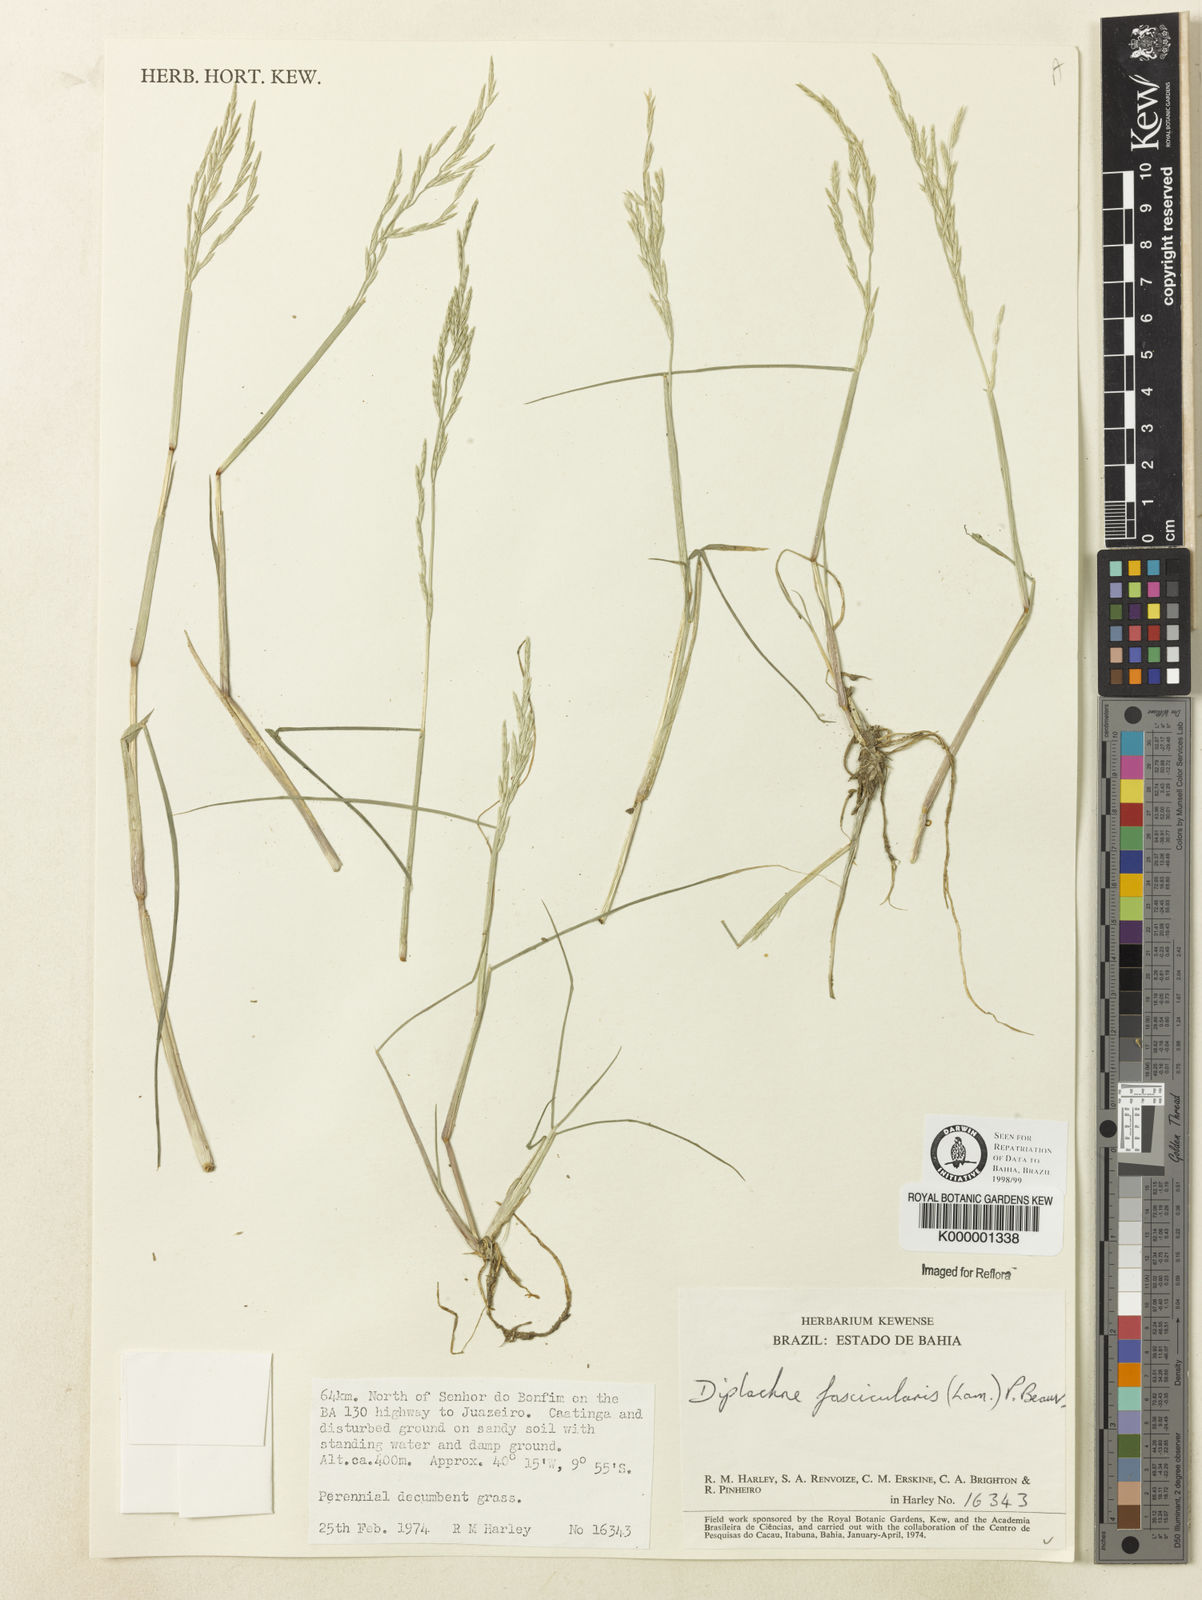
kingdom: Plantae
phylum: Tracheophyta
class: Liliopsida
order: Poales
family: Poaceae
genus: Diplachne
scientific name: Diplachne fusca
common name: Brown beetle grass
